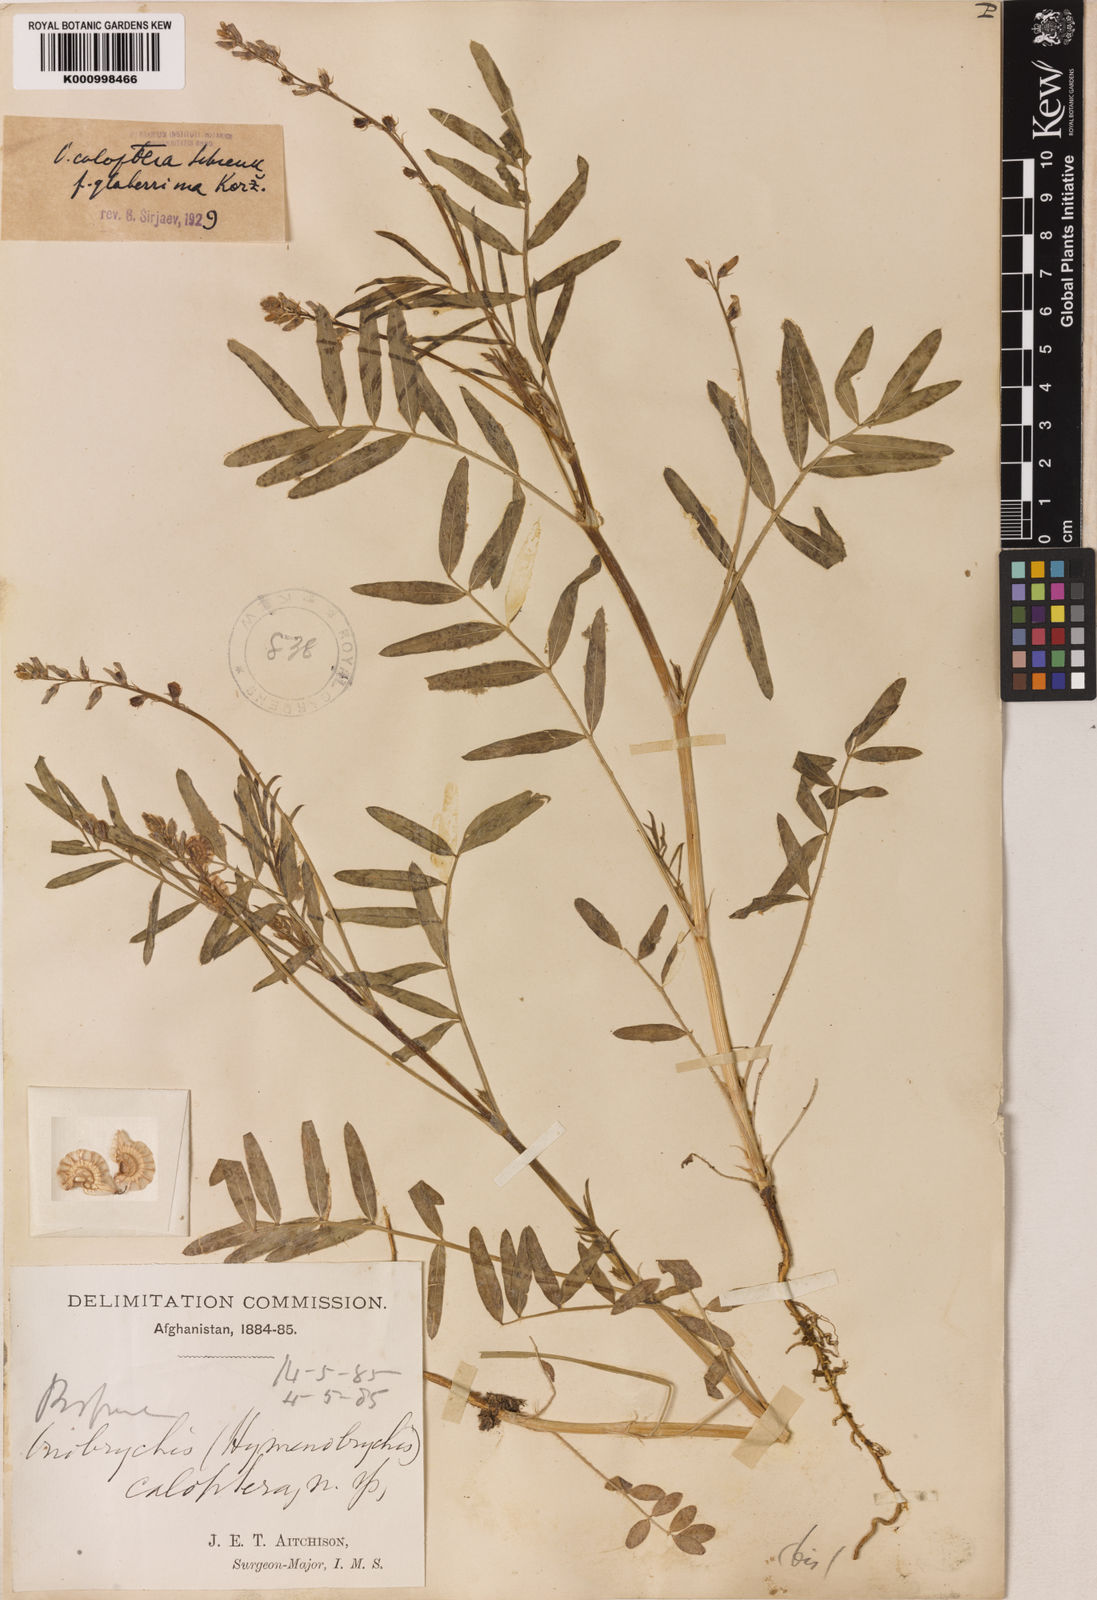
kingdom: Plantae
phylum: Tracheophyta
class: Magnoliopsida
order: Fabales
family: Fabaceae
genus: Onobrychis
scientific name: Onobrychis pulchella
